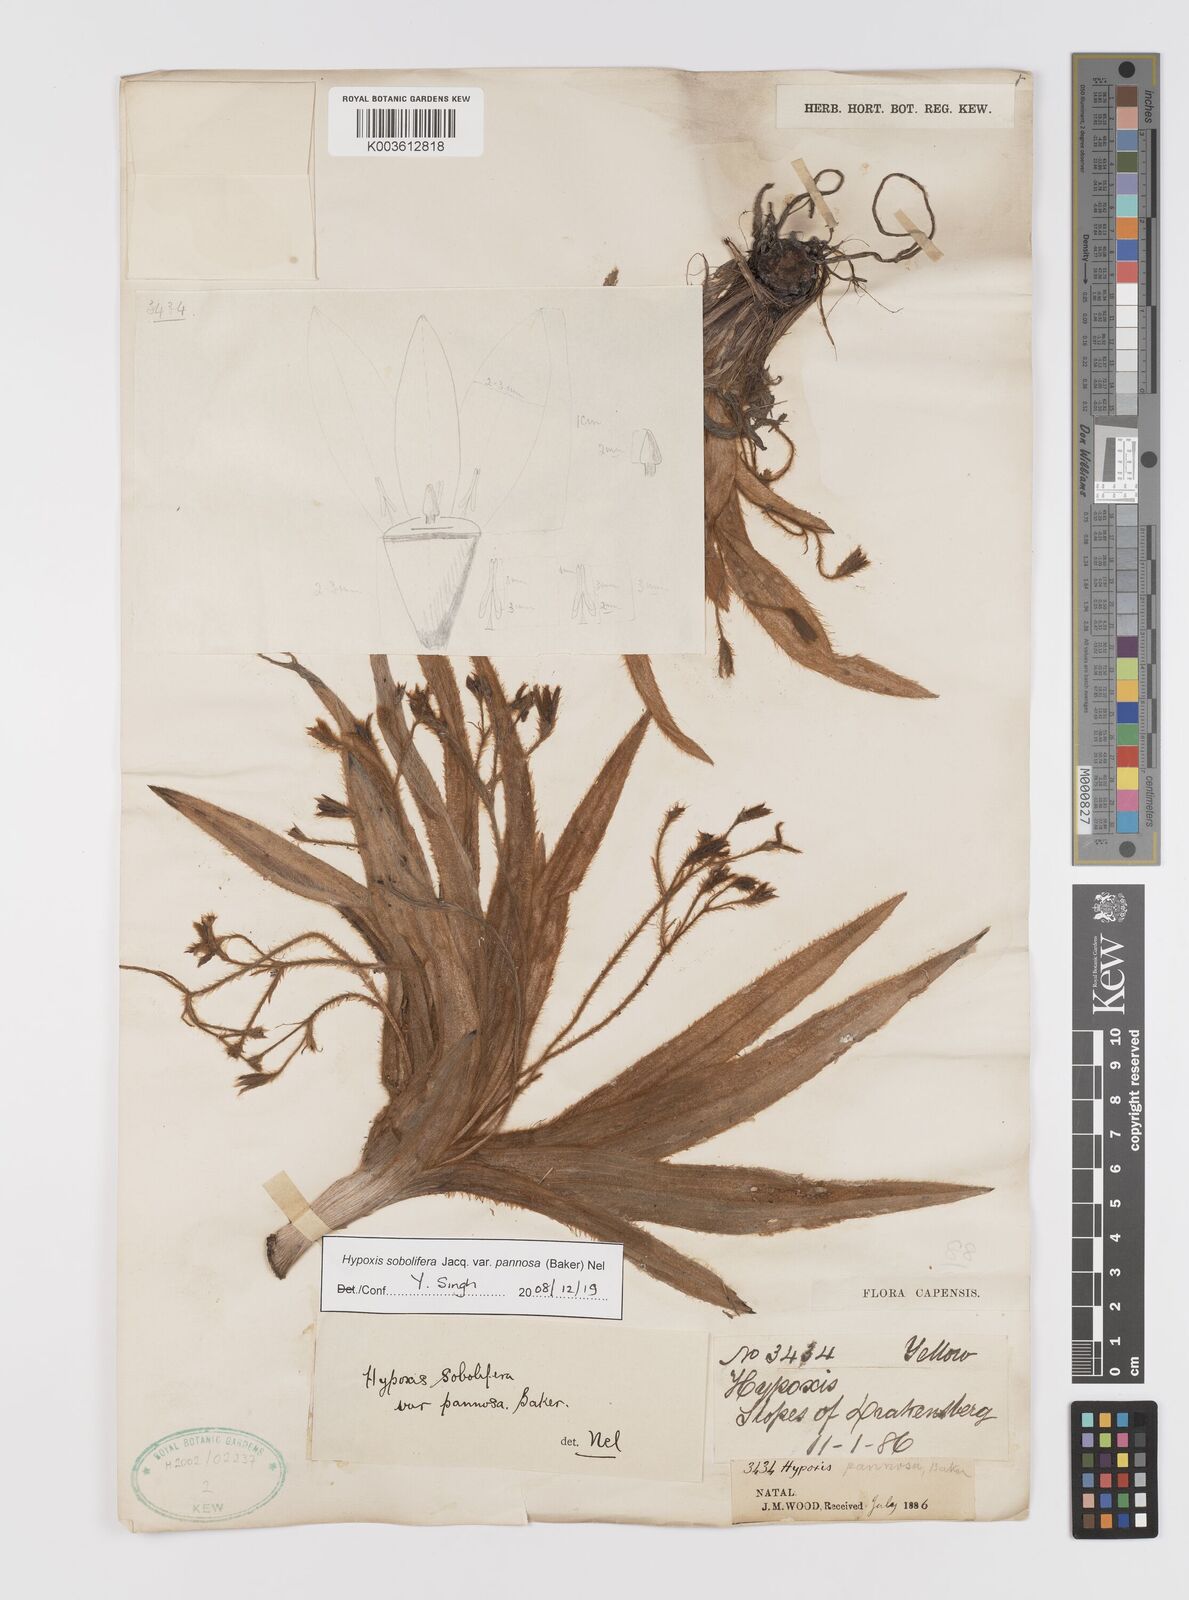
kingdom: Plantae
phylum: Tracheophyta
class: Liliopsida
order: Asparagales
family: Hypoxidaceae
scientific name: Hypoxidaceae
